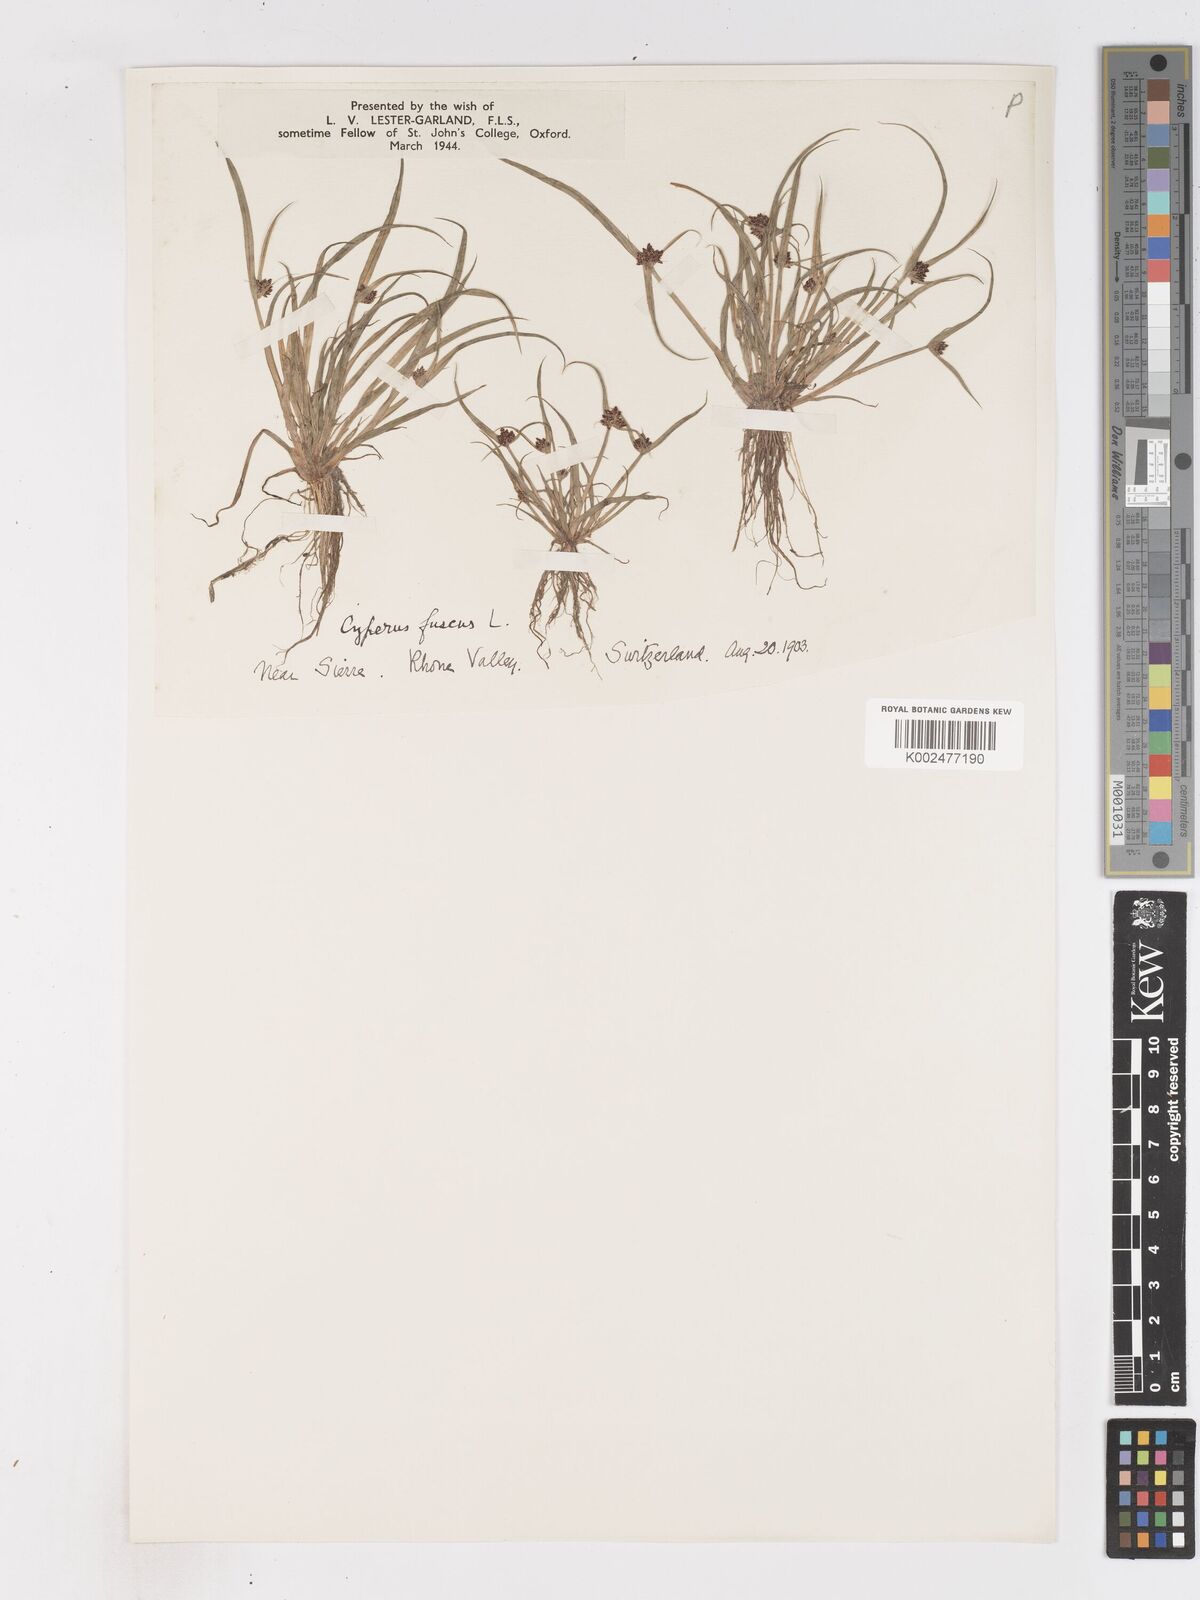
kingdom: Plantae
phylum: Tracheophyta
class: Liliopsida
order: Poales
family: Cyperaceae
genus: Cyperus
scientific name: Cyperus fuscus
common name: Brown galingale
